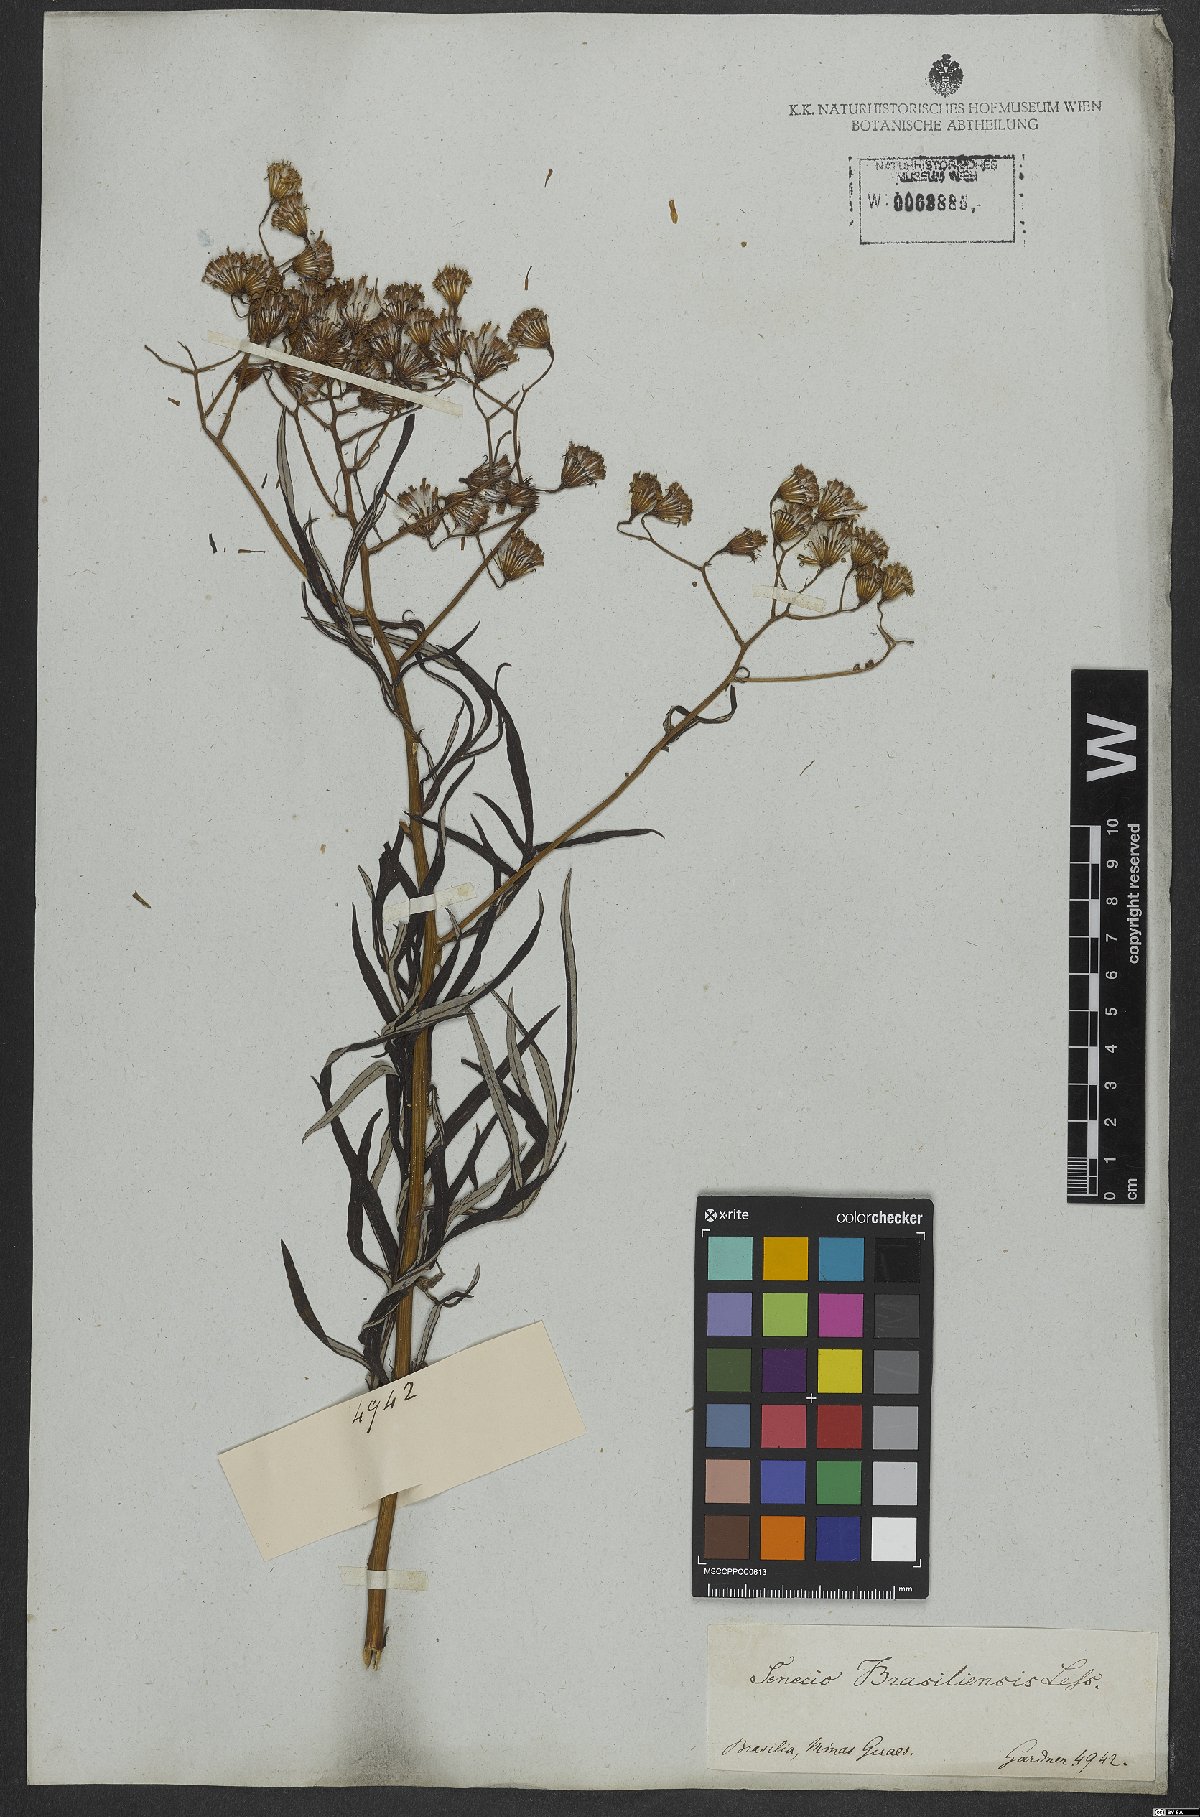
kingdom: Plantae
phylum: Tracheophyta
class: Magnoliopsida
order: Asterales
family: Asteraceae
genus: Senecio
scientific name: Senecio brasiliensis
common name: Hemp-leaf ragwort
